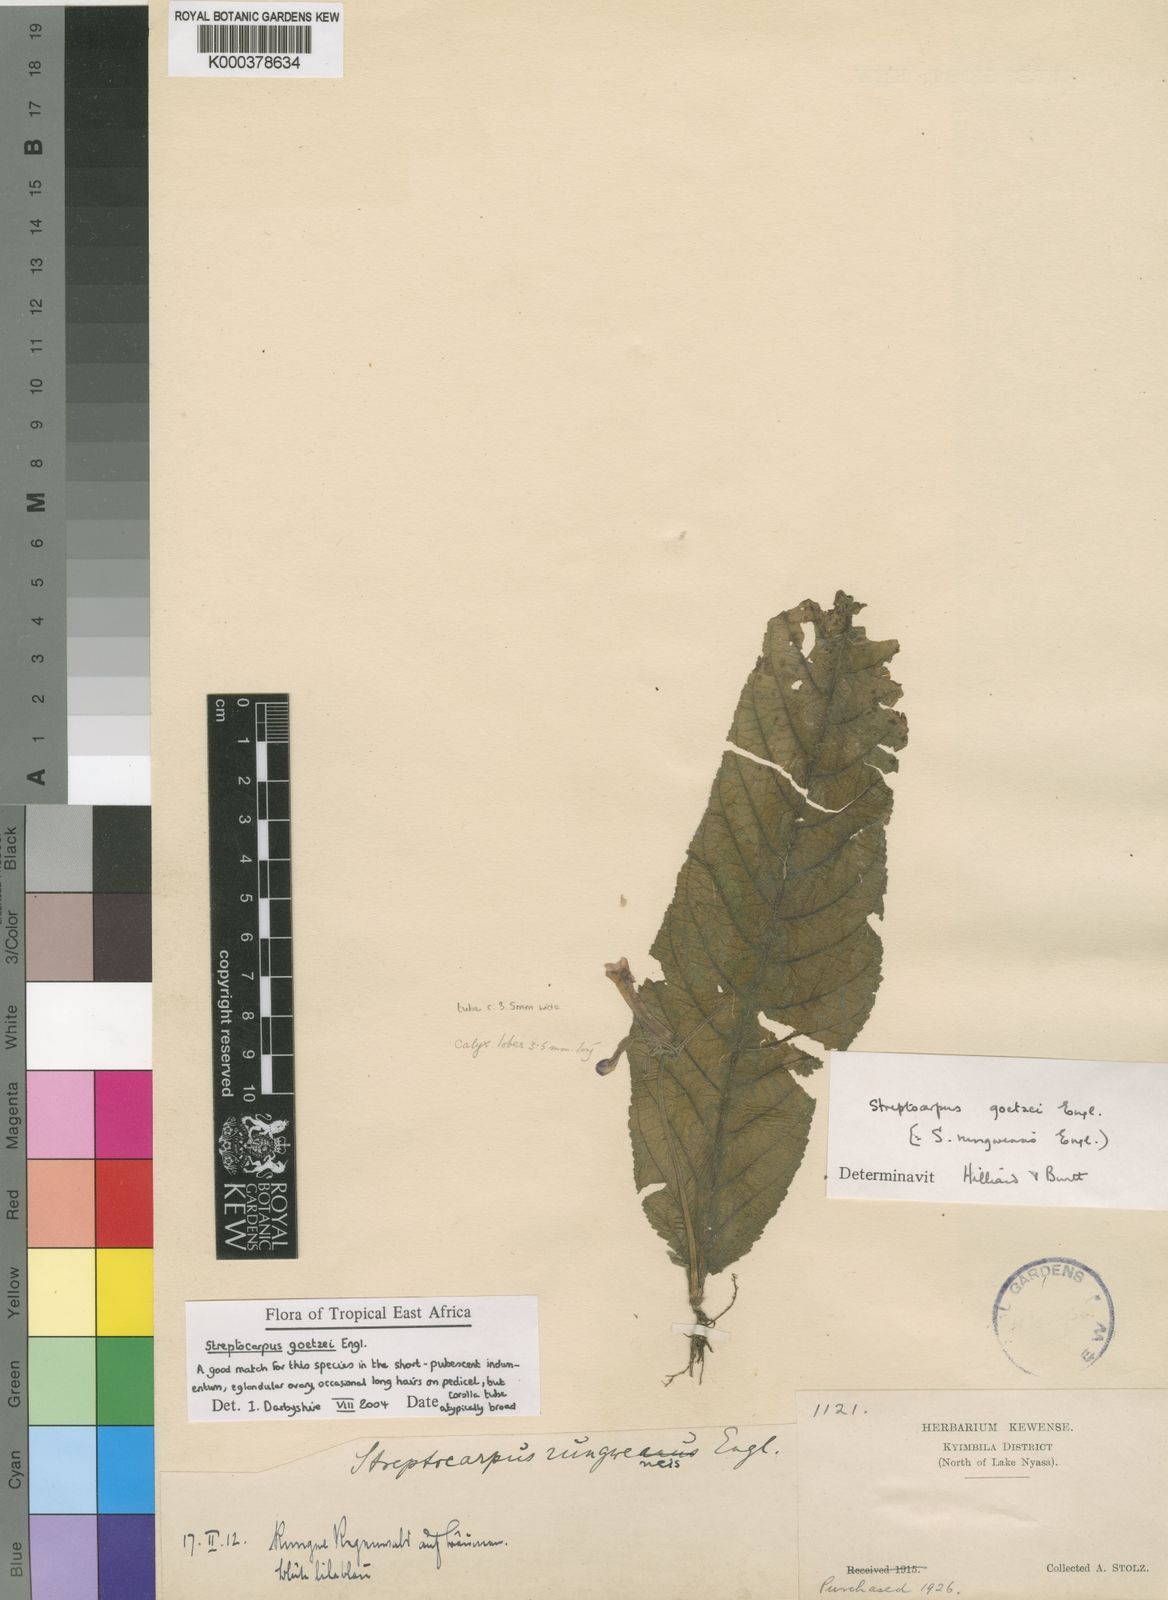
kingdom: Plantae
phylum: Tracheophyta
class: Magnoliopsida
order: Lamiales
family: Gesneriaceae
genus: Streptocarpus
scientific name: Streptocarpus goetzei
